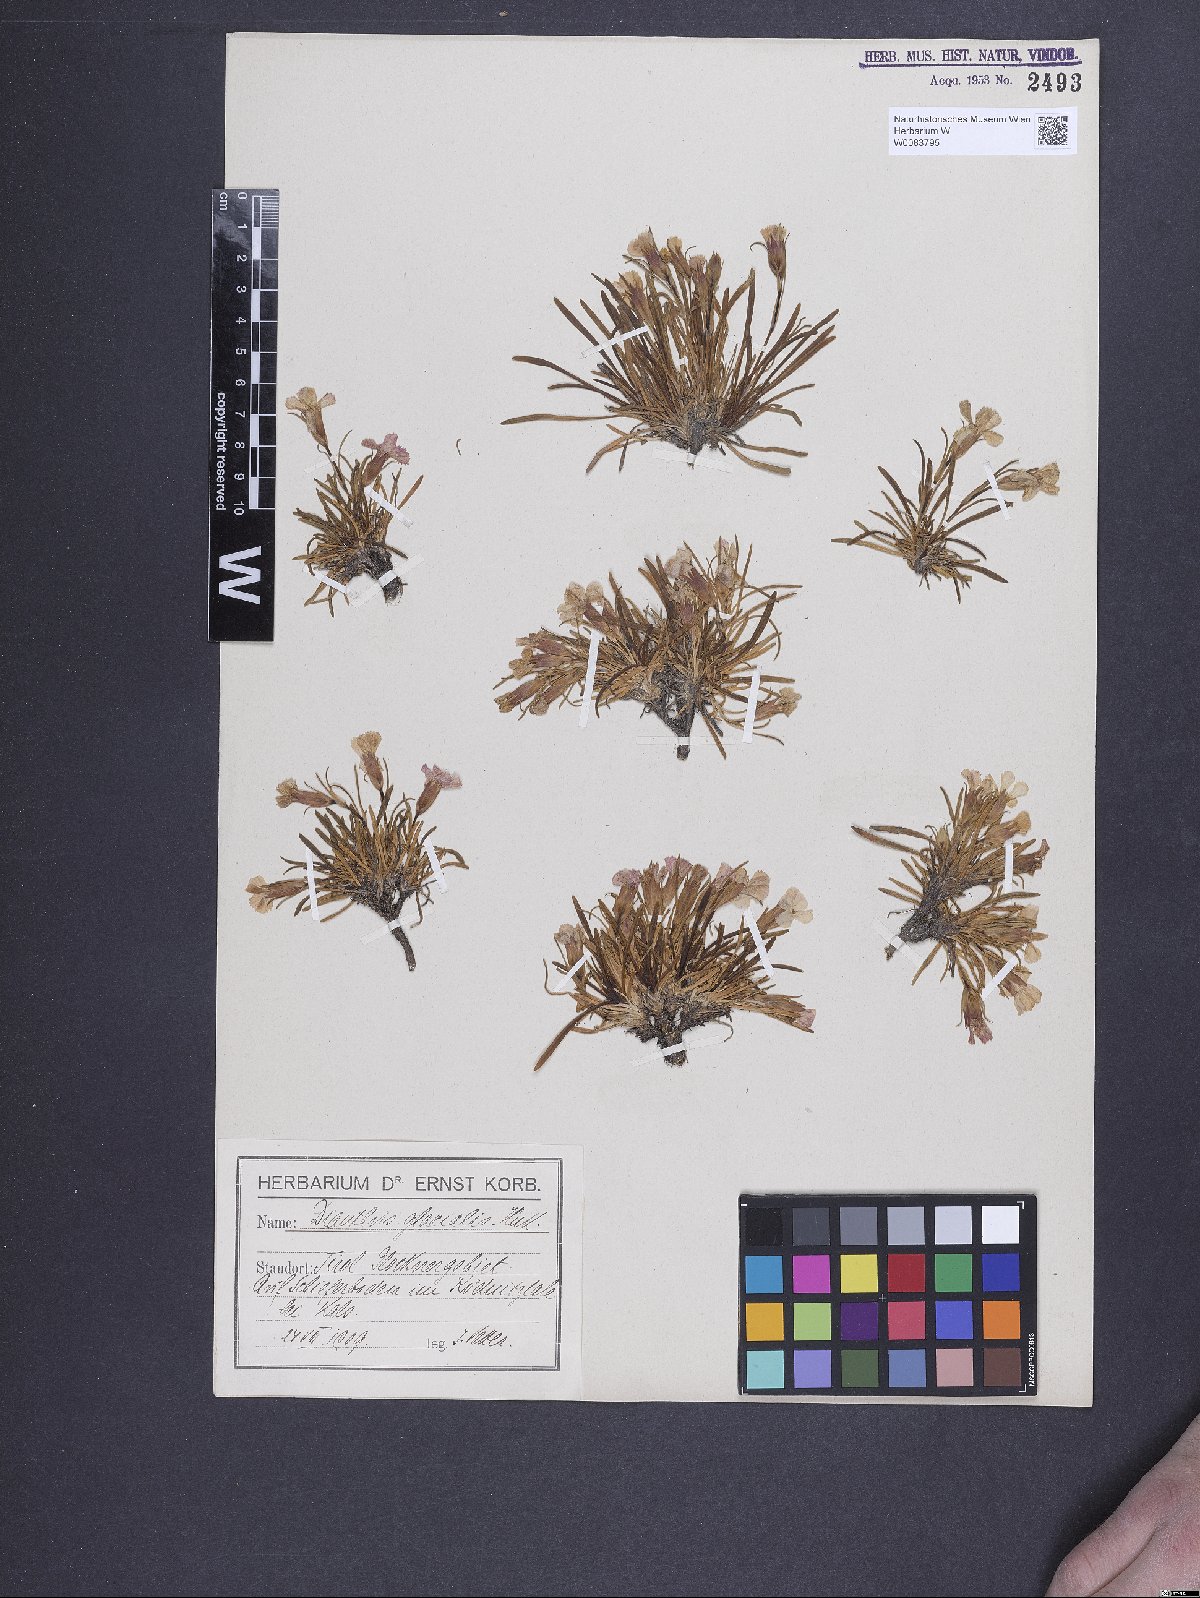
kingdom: Plantae
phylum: Tracheophyta
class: Magnoliopsida
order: Caryophyllales
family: Caryophyllaceae
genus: Dianthus
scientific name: Dianthus glacialis
